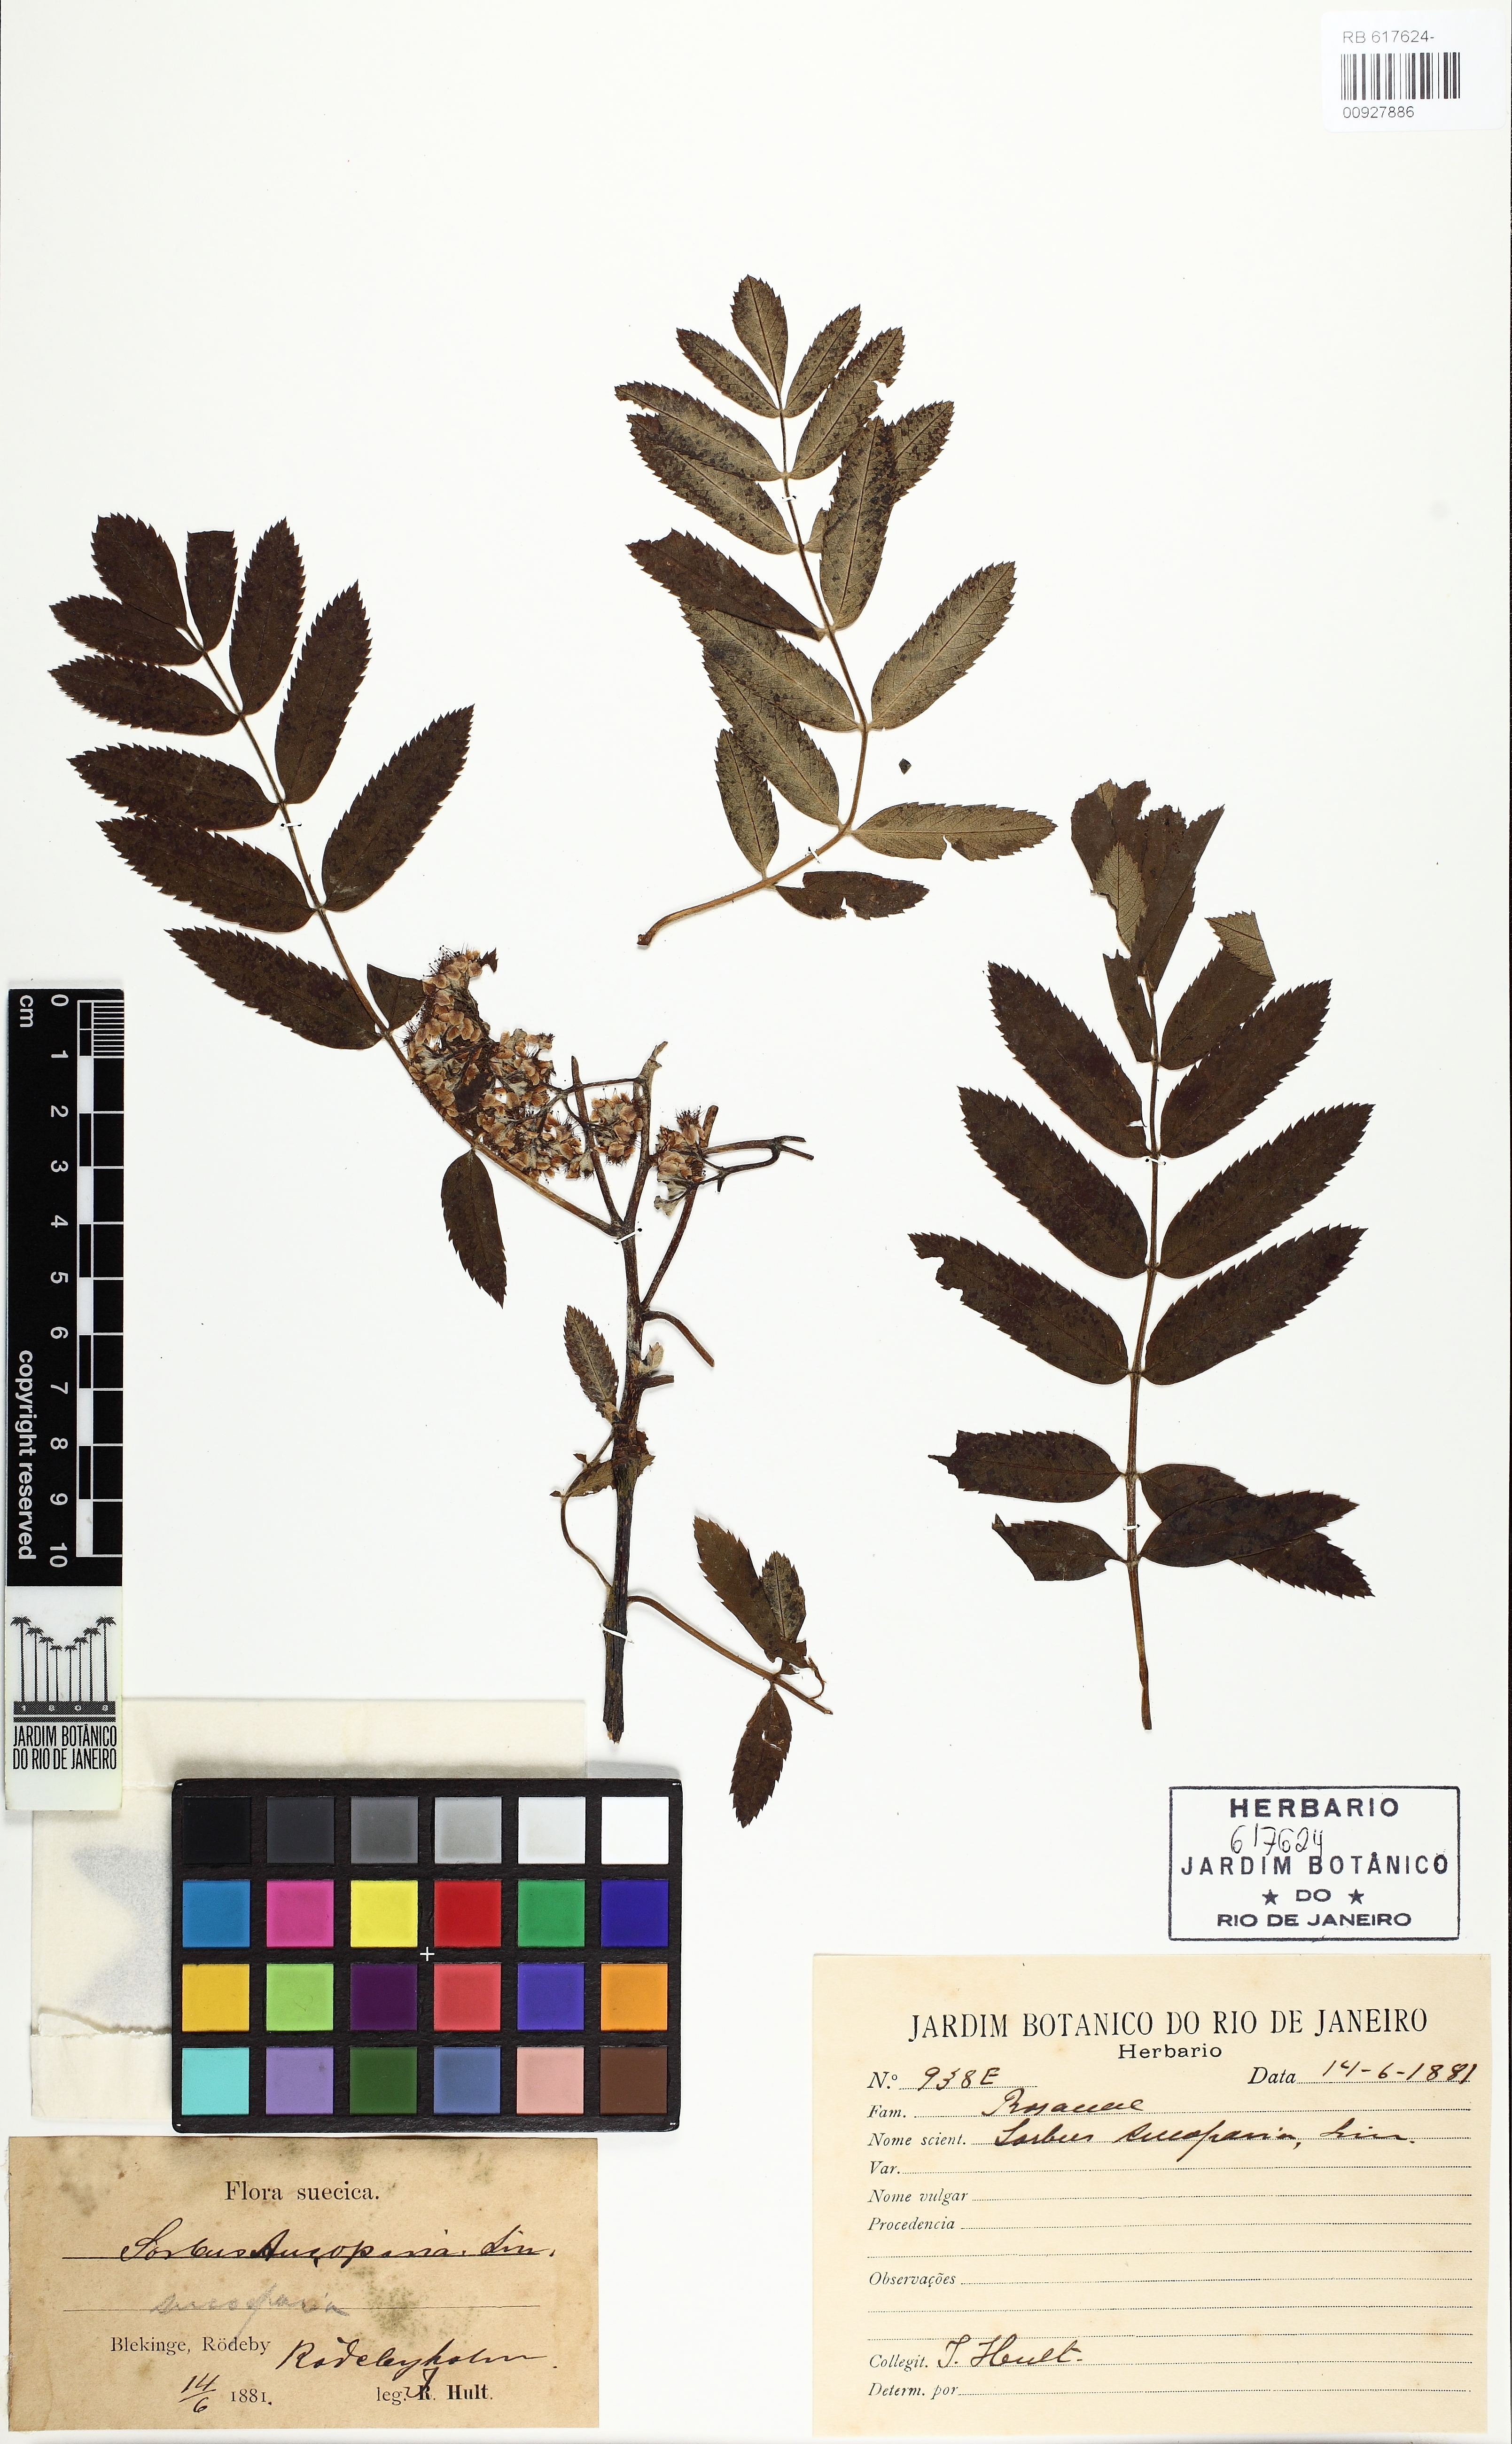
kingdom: Plantae
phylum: Tracheophyta
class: Magnoliopsida
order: Rosales
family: Rosaceae
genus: Sorbus
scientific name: Sorbus aucuparia
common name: Rowan
